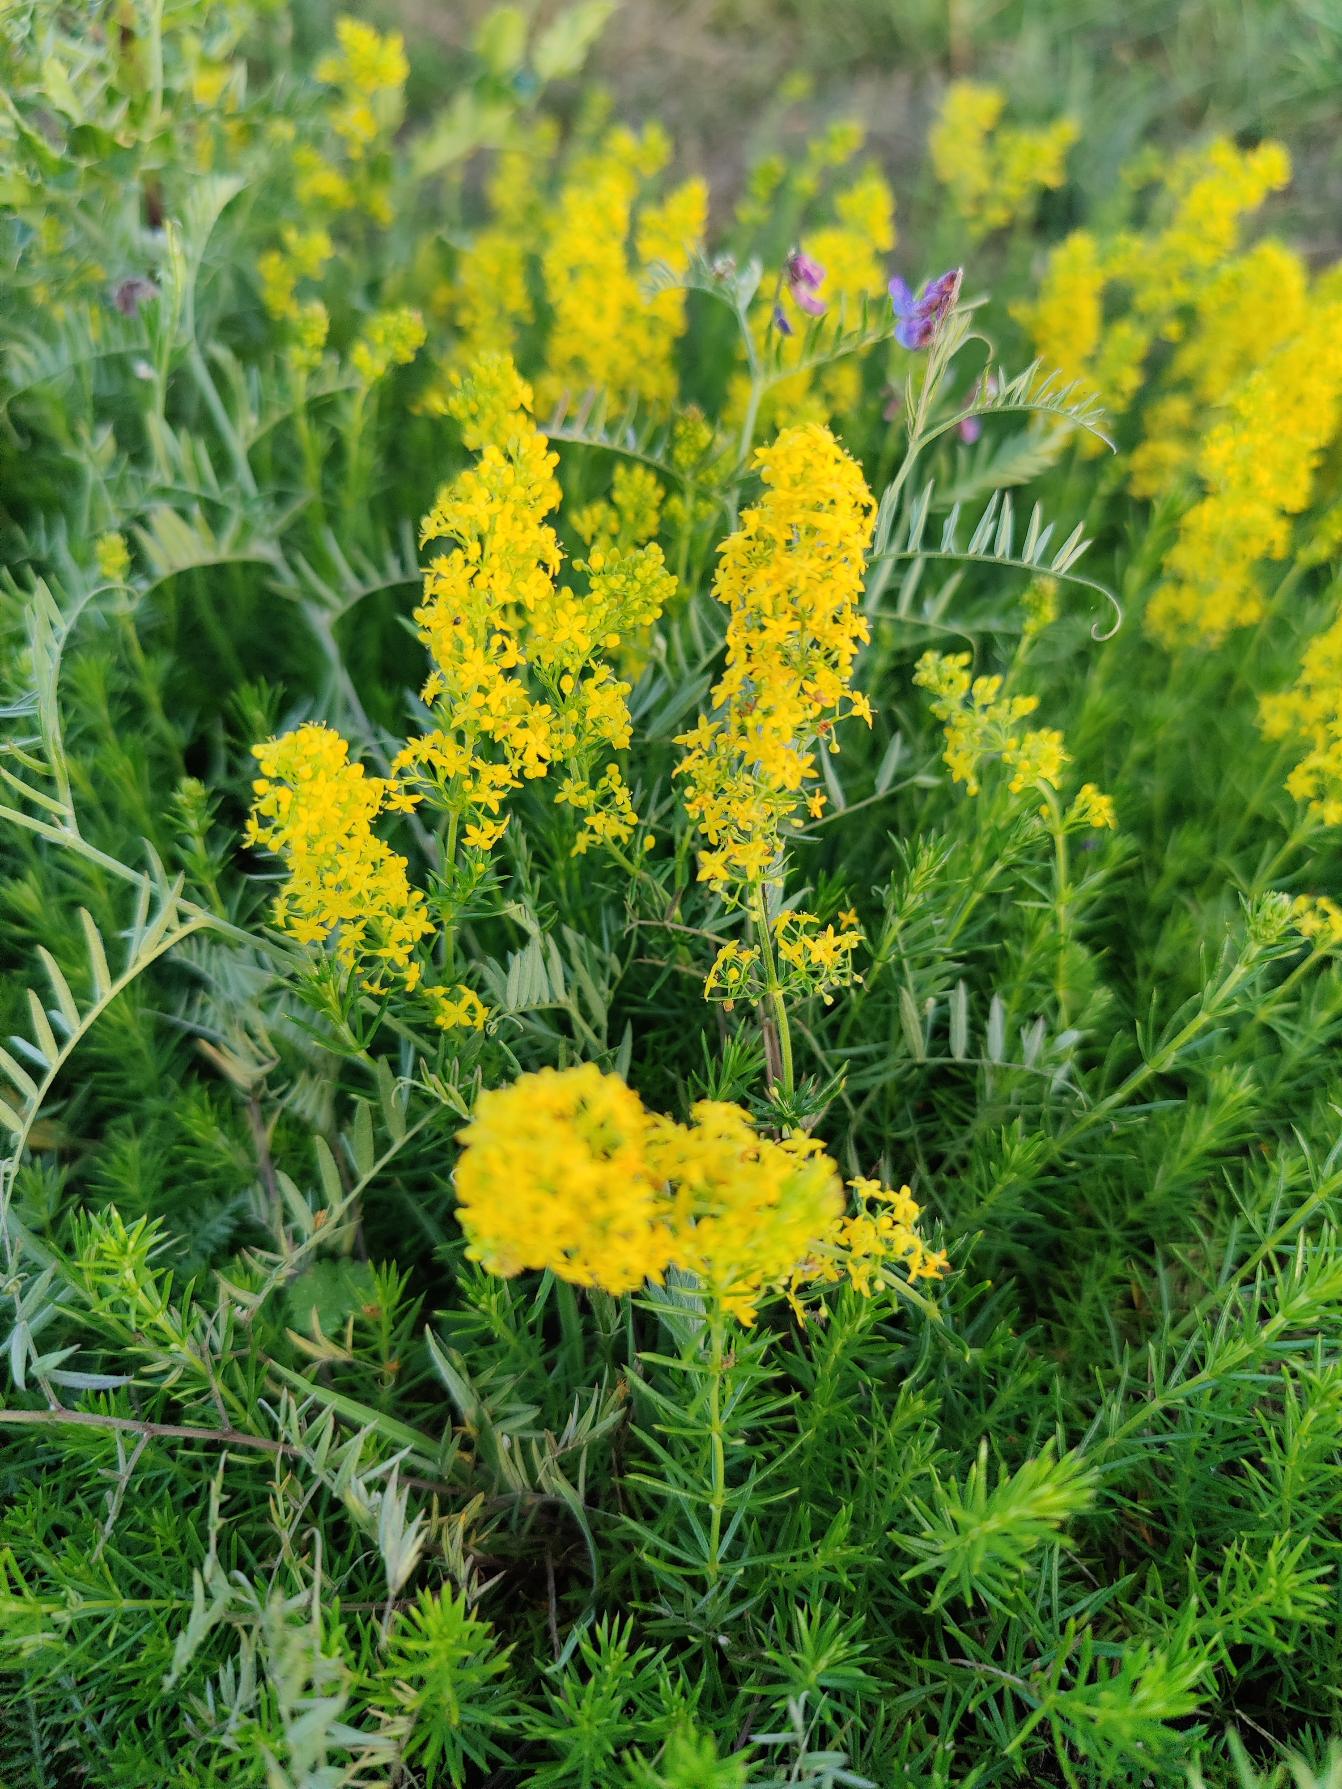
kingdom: Plantae
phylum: Tracheophyta
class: Magnoliopsida
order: Gentianales
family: Rubiaceae
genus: Galium
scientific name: Galium verum
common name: Gul snerre
